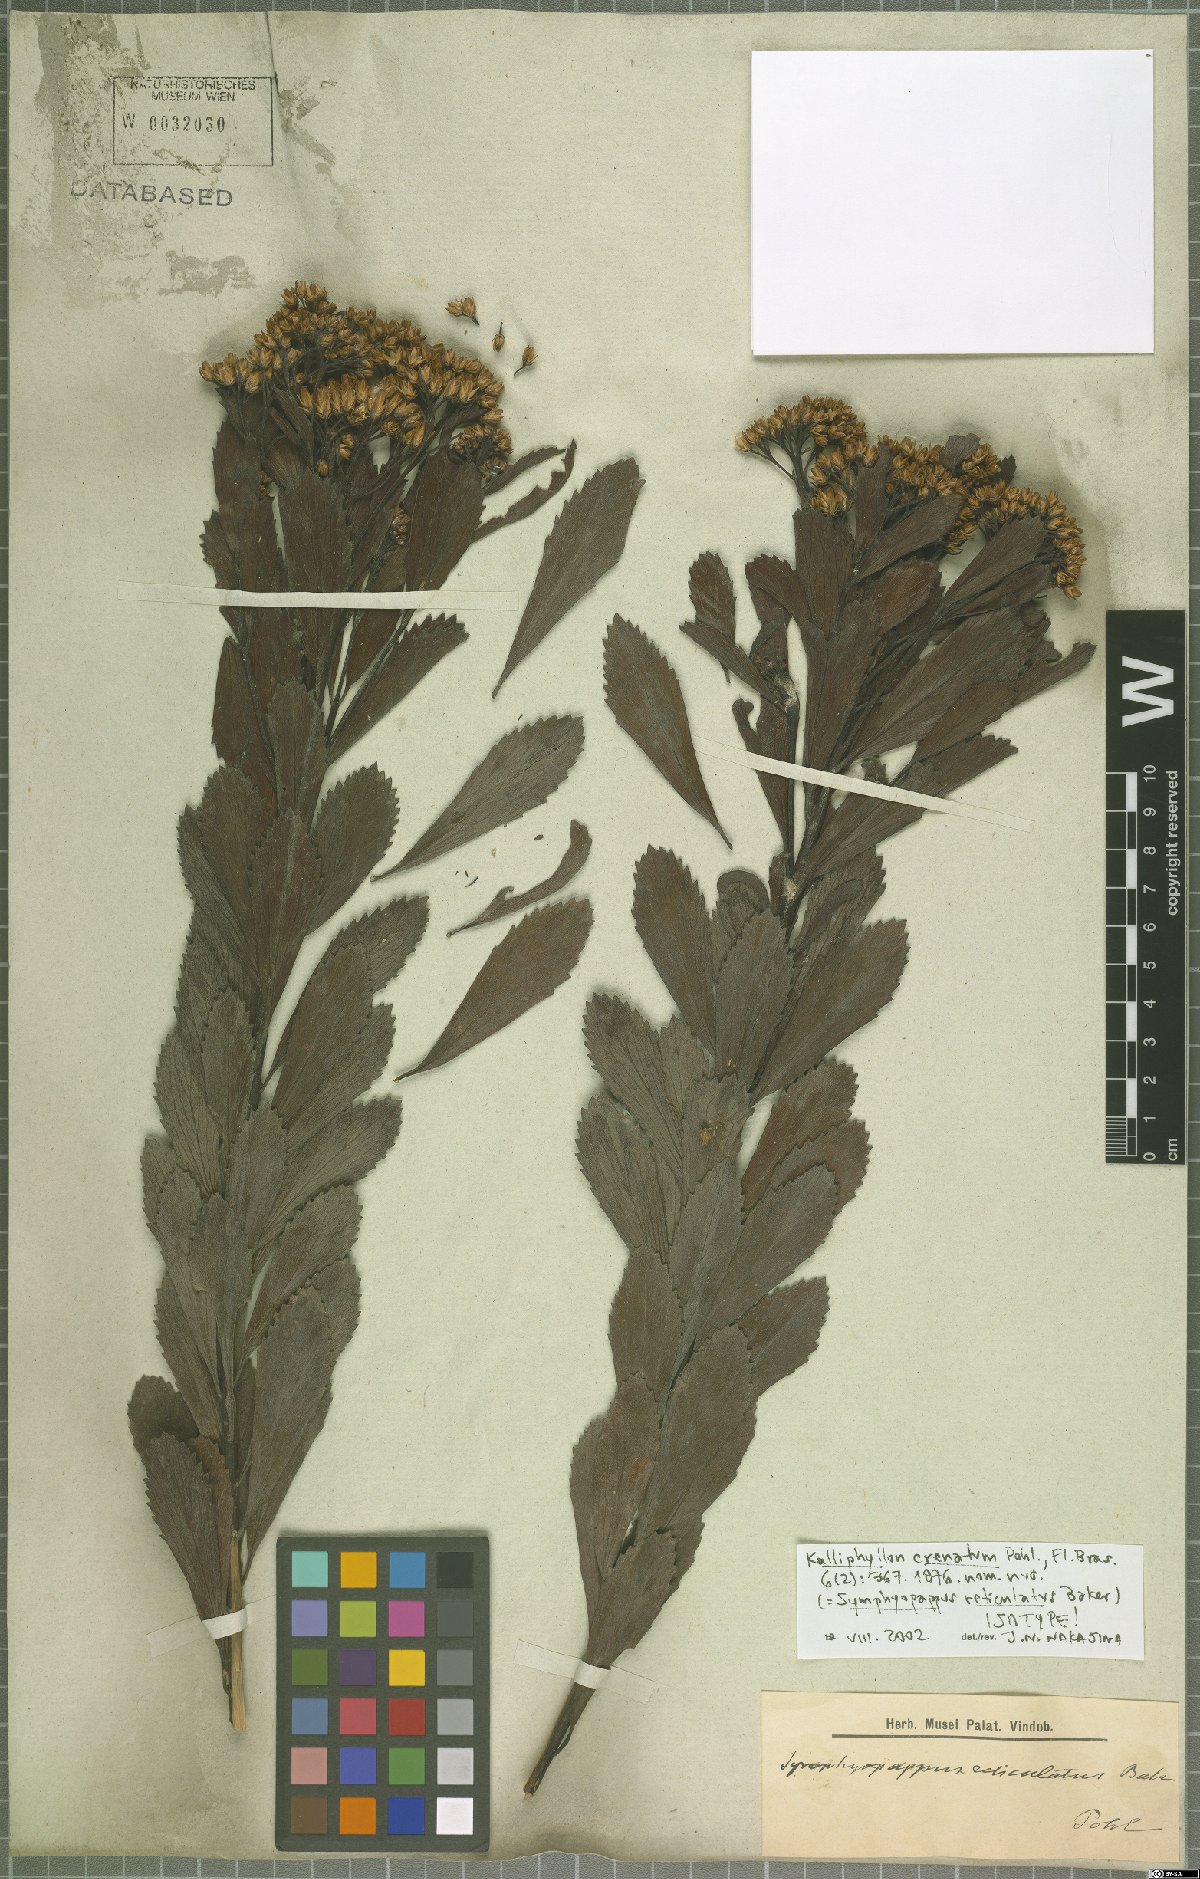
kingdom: Plantae
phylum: Tracheophyta
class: Magnoliopsida
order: Asterales
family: Asteraceae
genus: Symphyopappus
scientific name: Symphyopappus reticulatus
